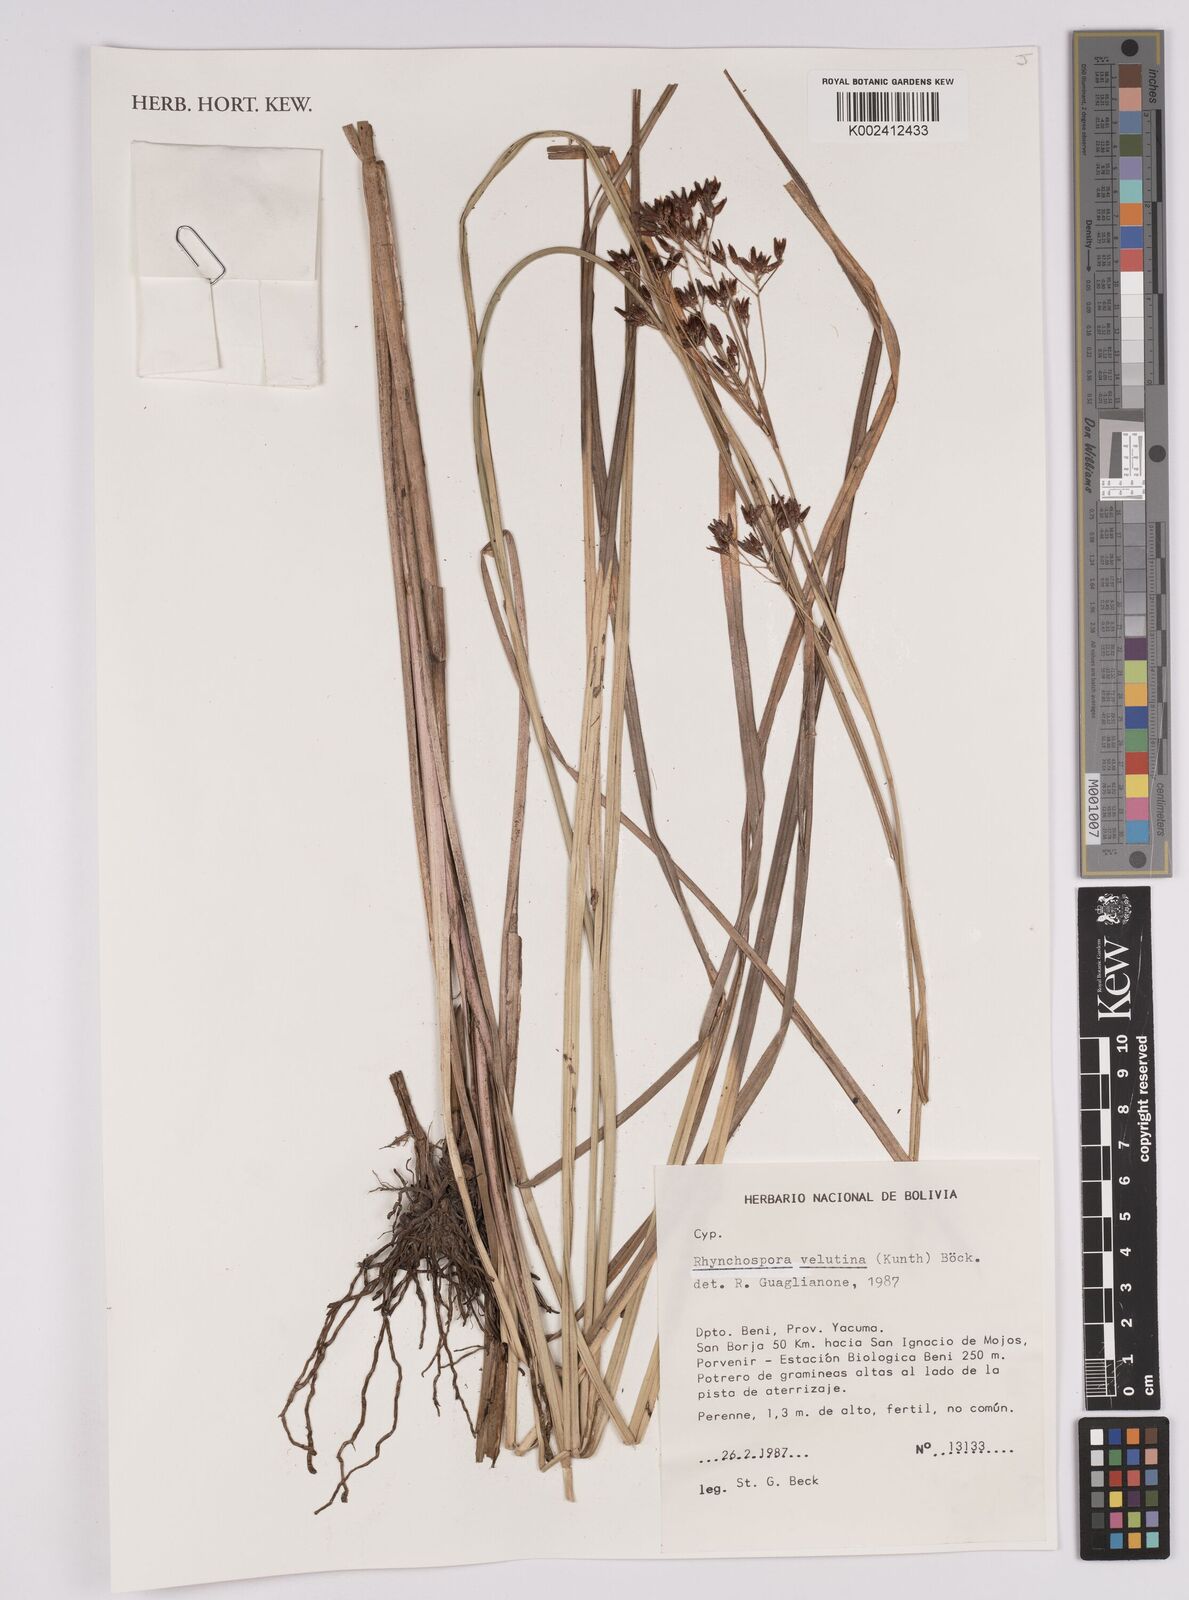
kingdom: Plantae
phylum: Tracheophyta
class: Liliopsida
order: Poales
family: Cyperaceae
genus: Rhynchospora
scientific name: Rhynchospora velutina
